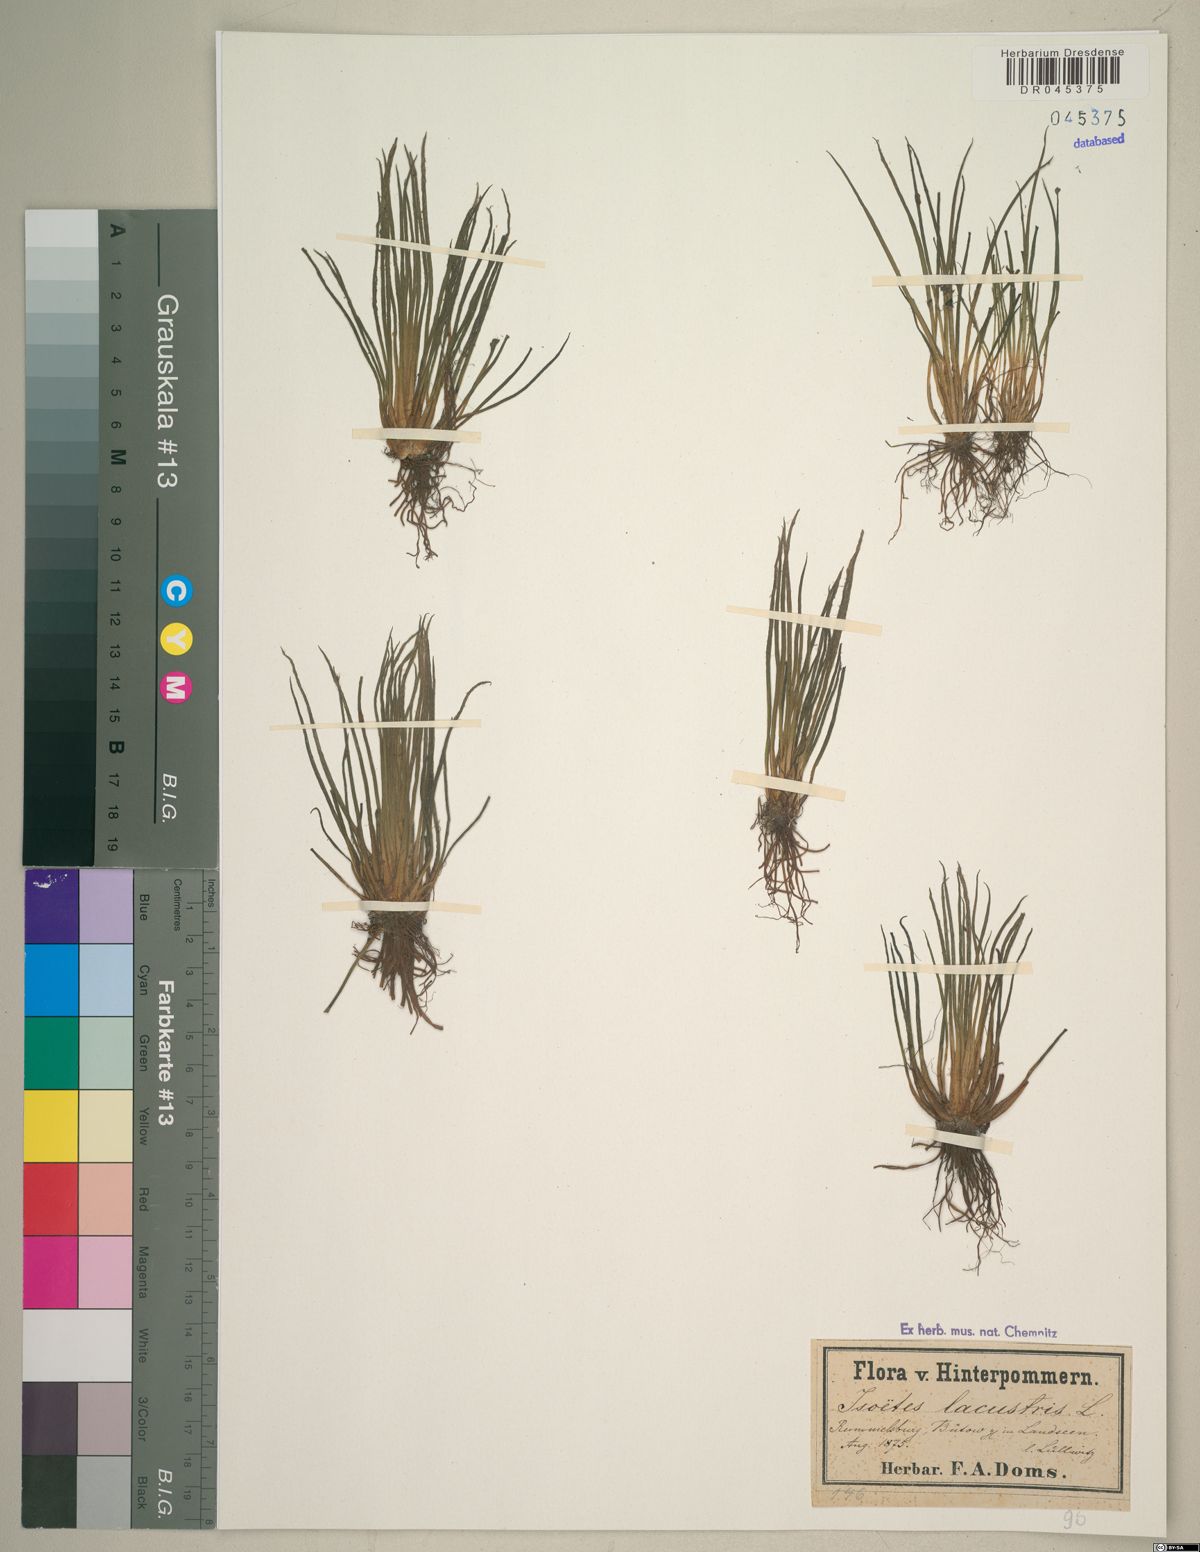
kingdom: Plantae
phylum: Tracheophyta
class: Lycopodiopsida
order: Isoetales
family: Isoetaceae
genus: Isoetes
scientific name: Isoetes lacustris
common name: Common quillwort
